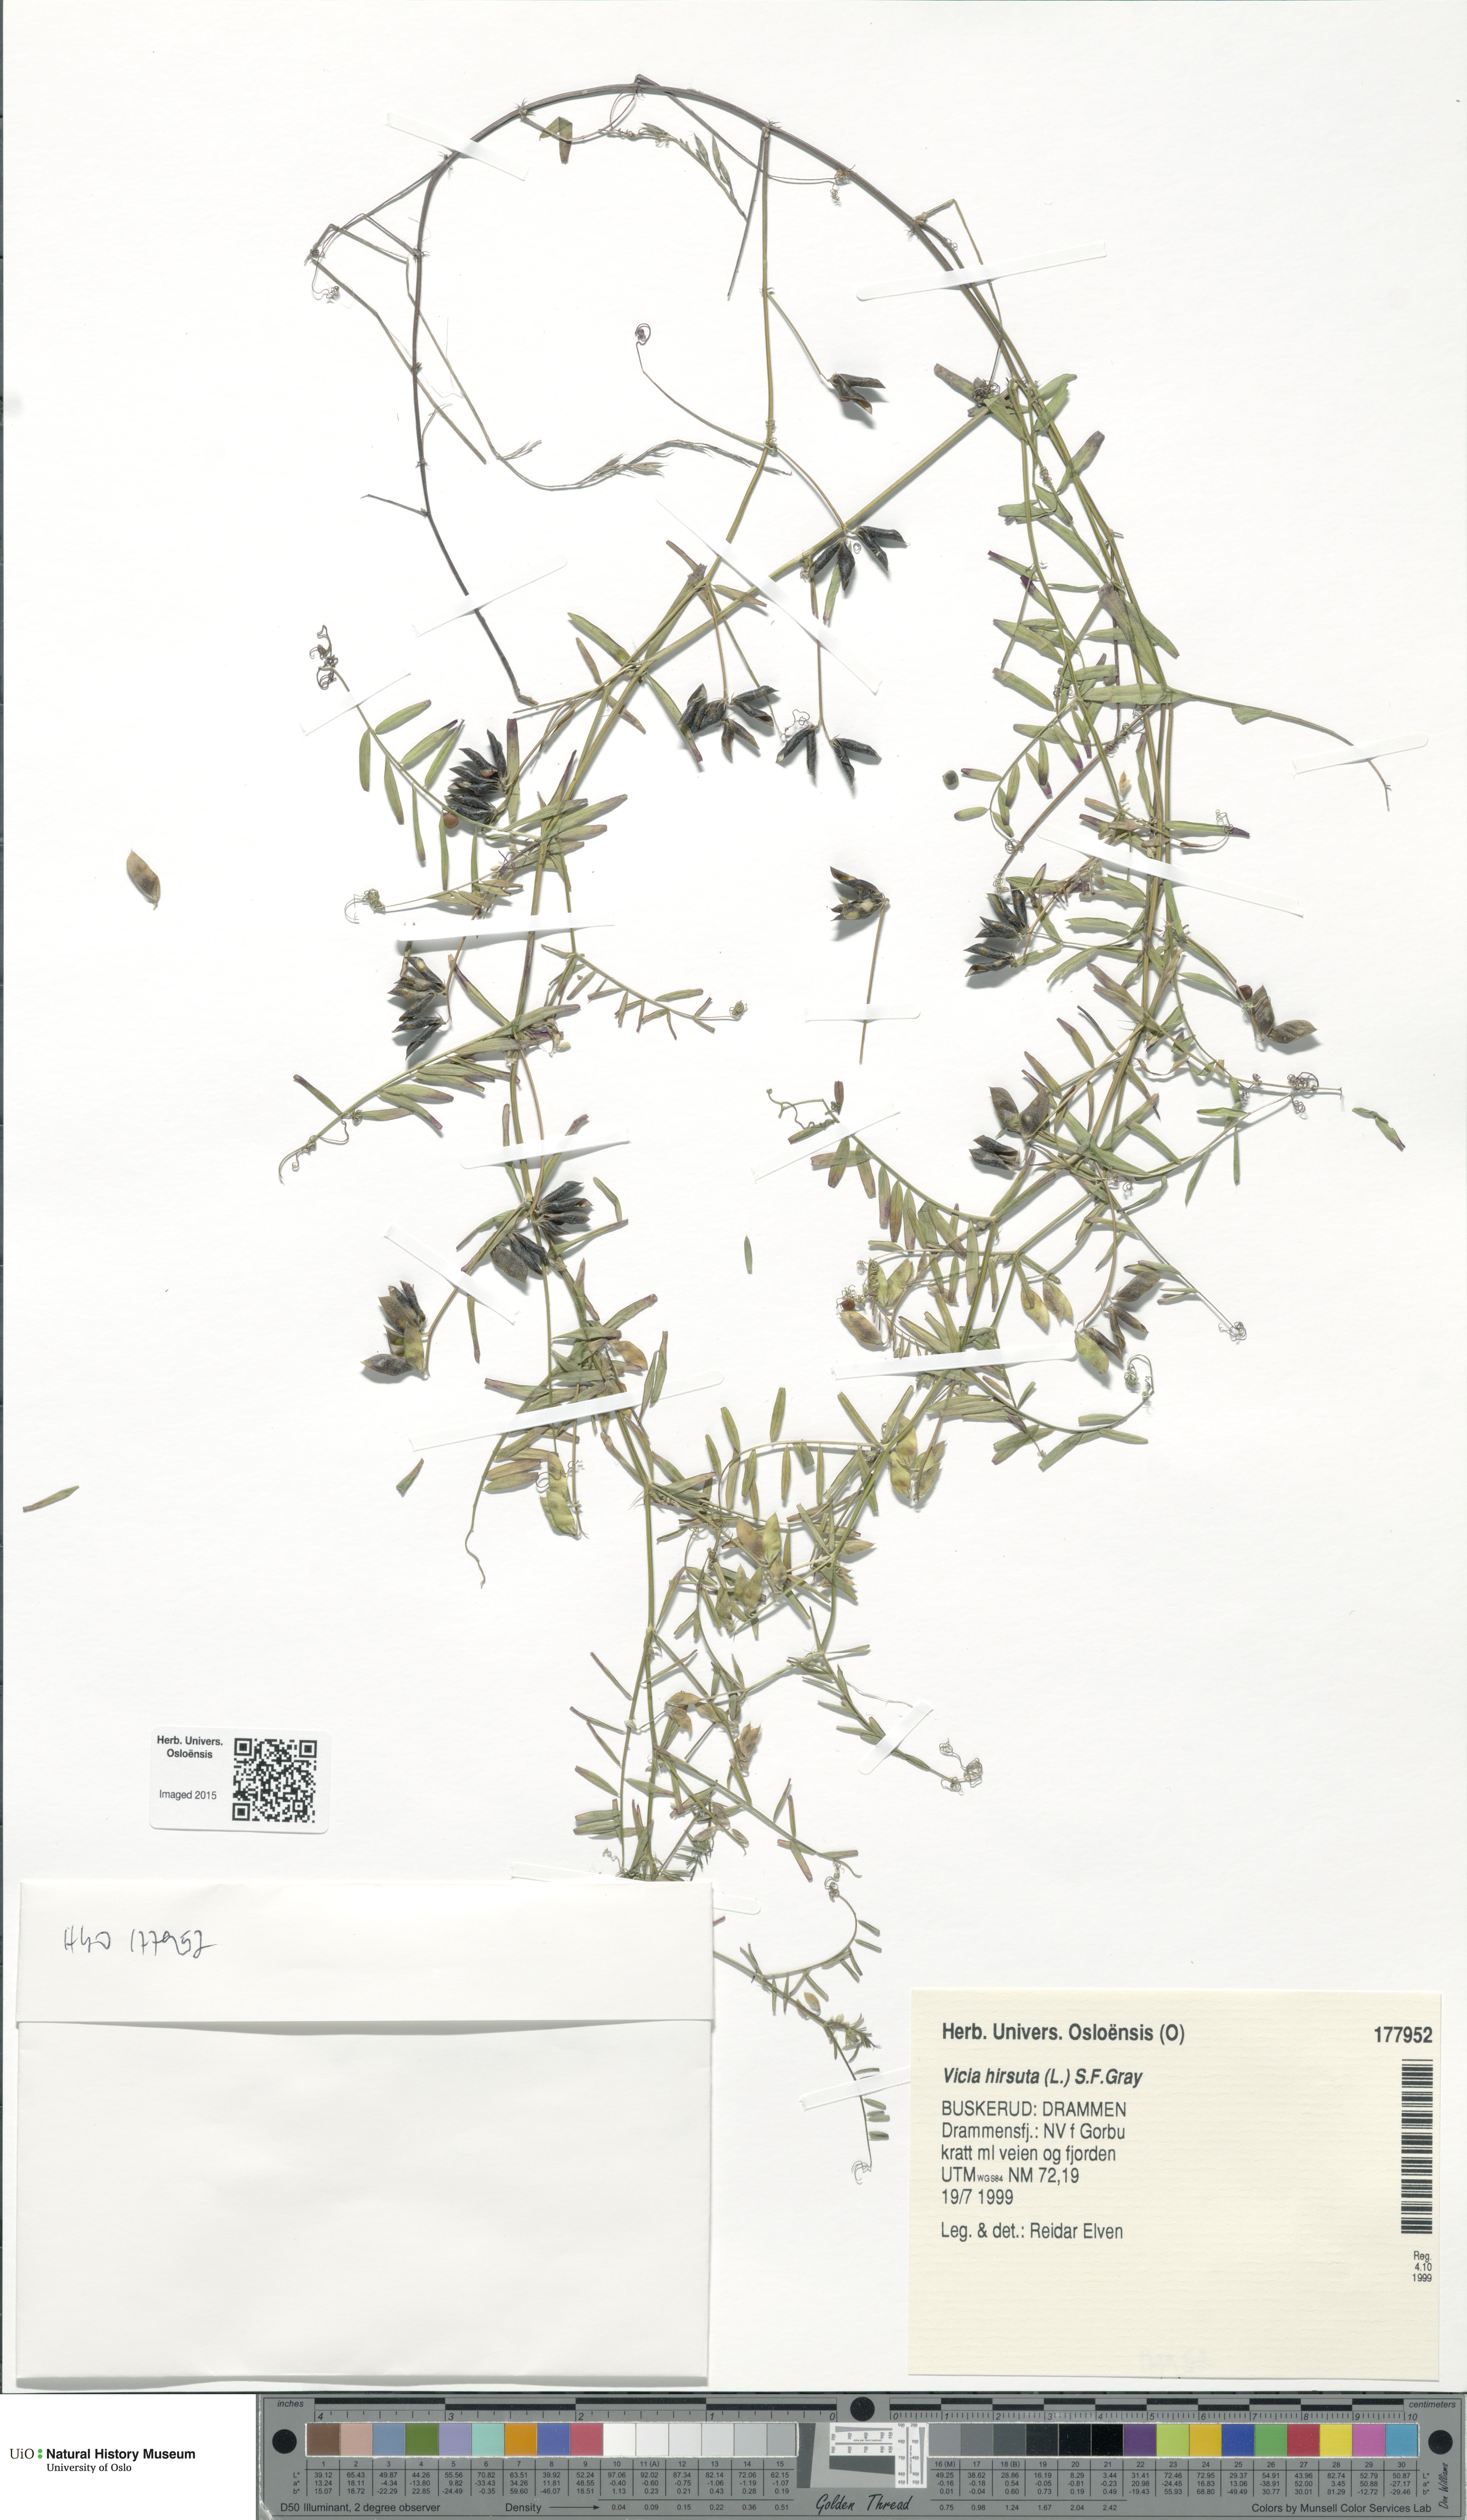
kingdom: Plantae
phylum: Tracheophyta
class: Magnoliopsida
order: Fabales
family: Fabaceae
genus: Vicia
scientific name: Vicia hirsuta
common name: Tiny vetch
